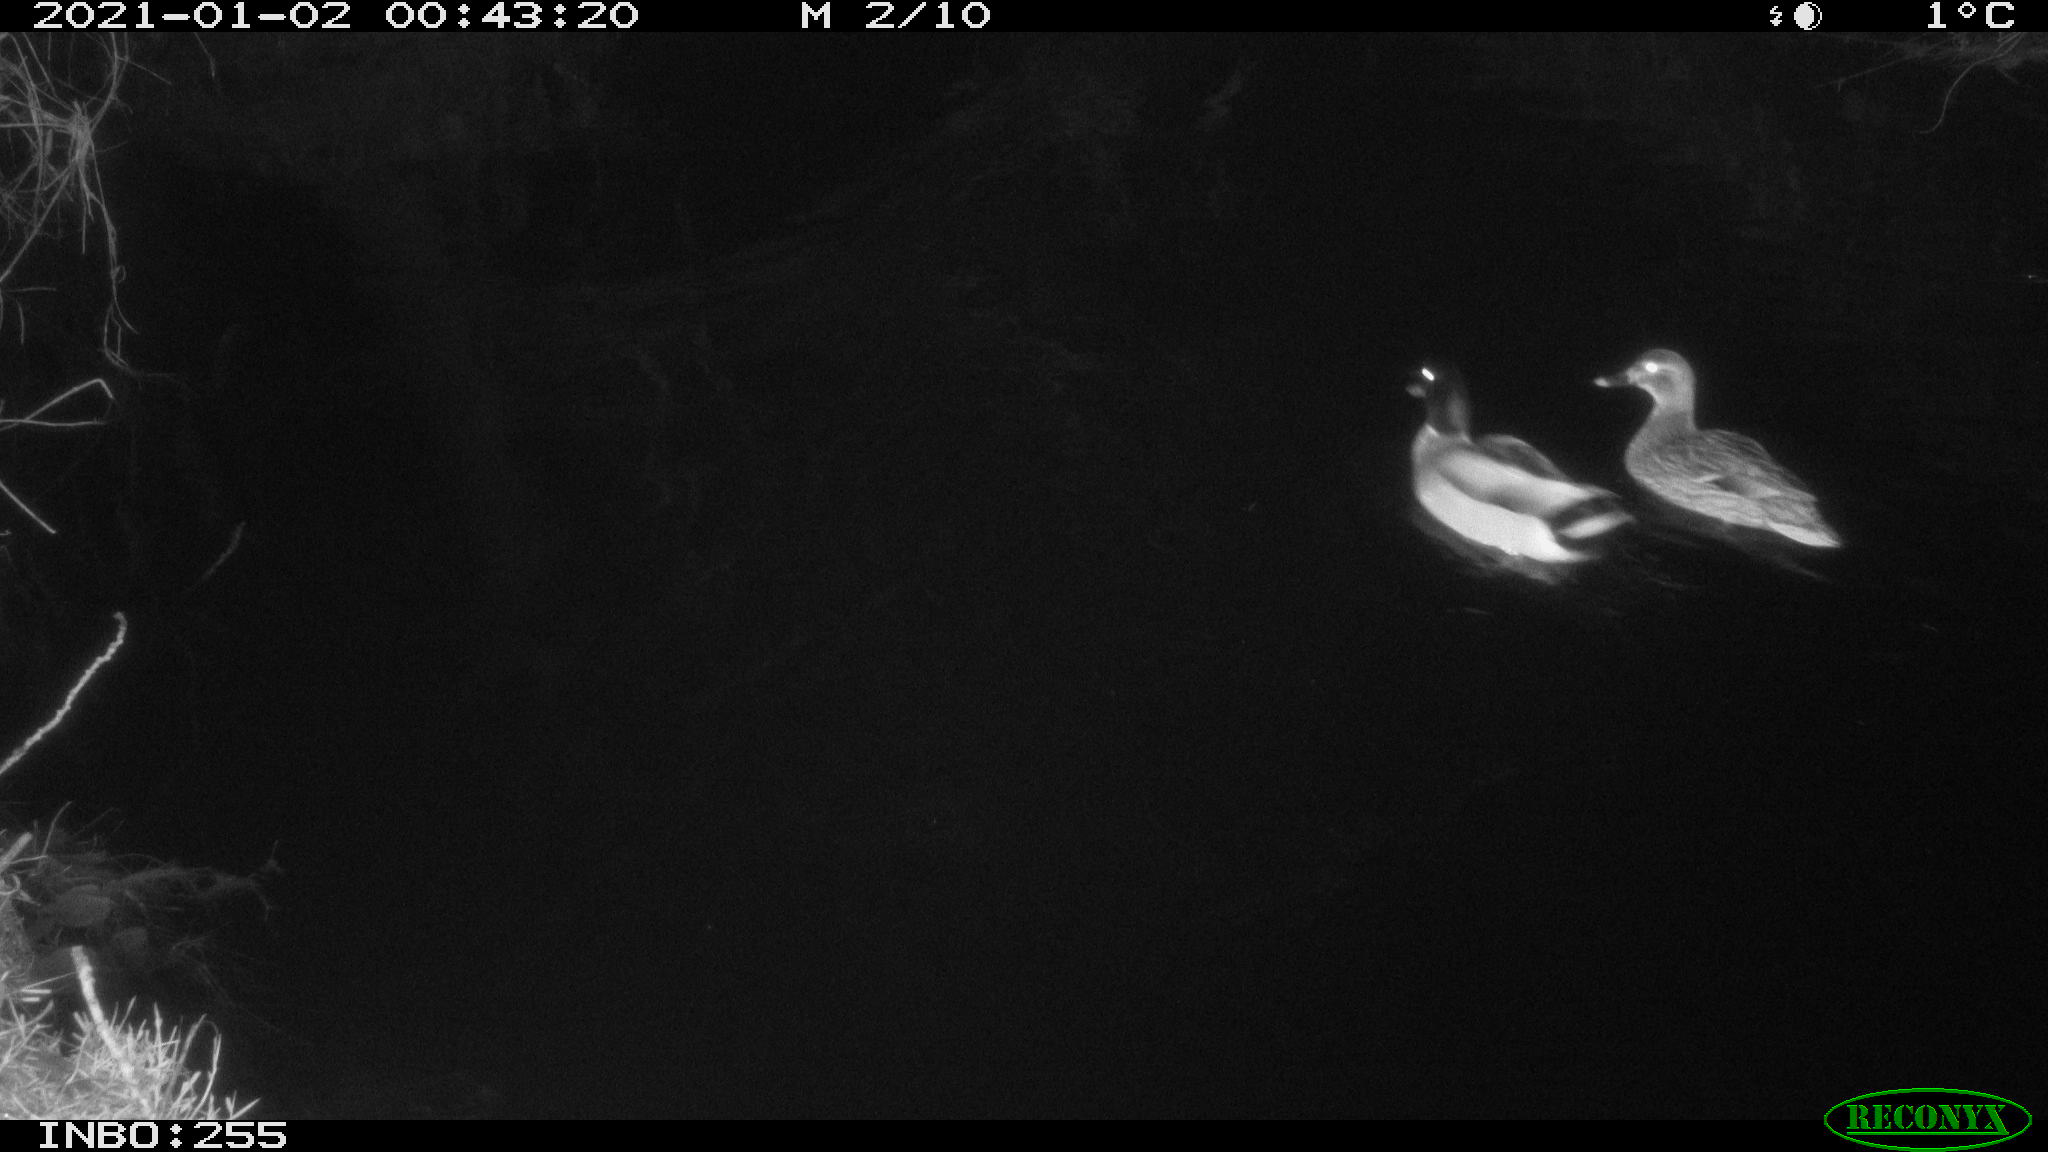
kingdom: Animalia
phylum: Chordata
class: Aves
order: Anseriformes
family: Anatidae
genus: Anas
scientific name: Anas platyrhynchos
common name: Mallard
